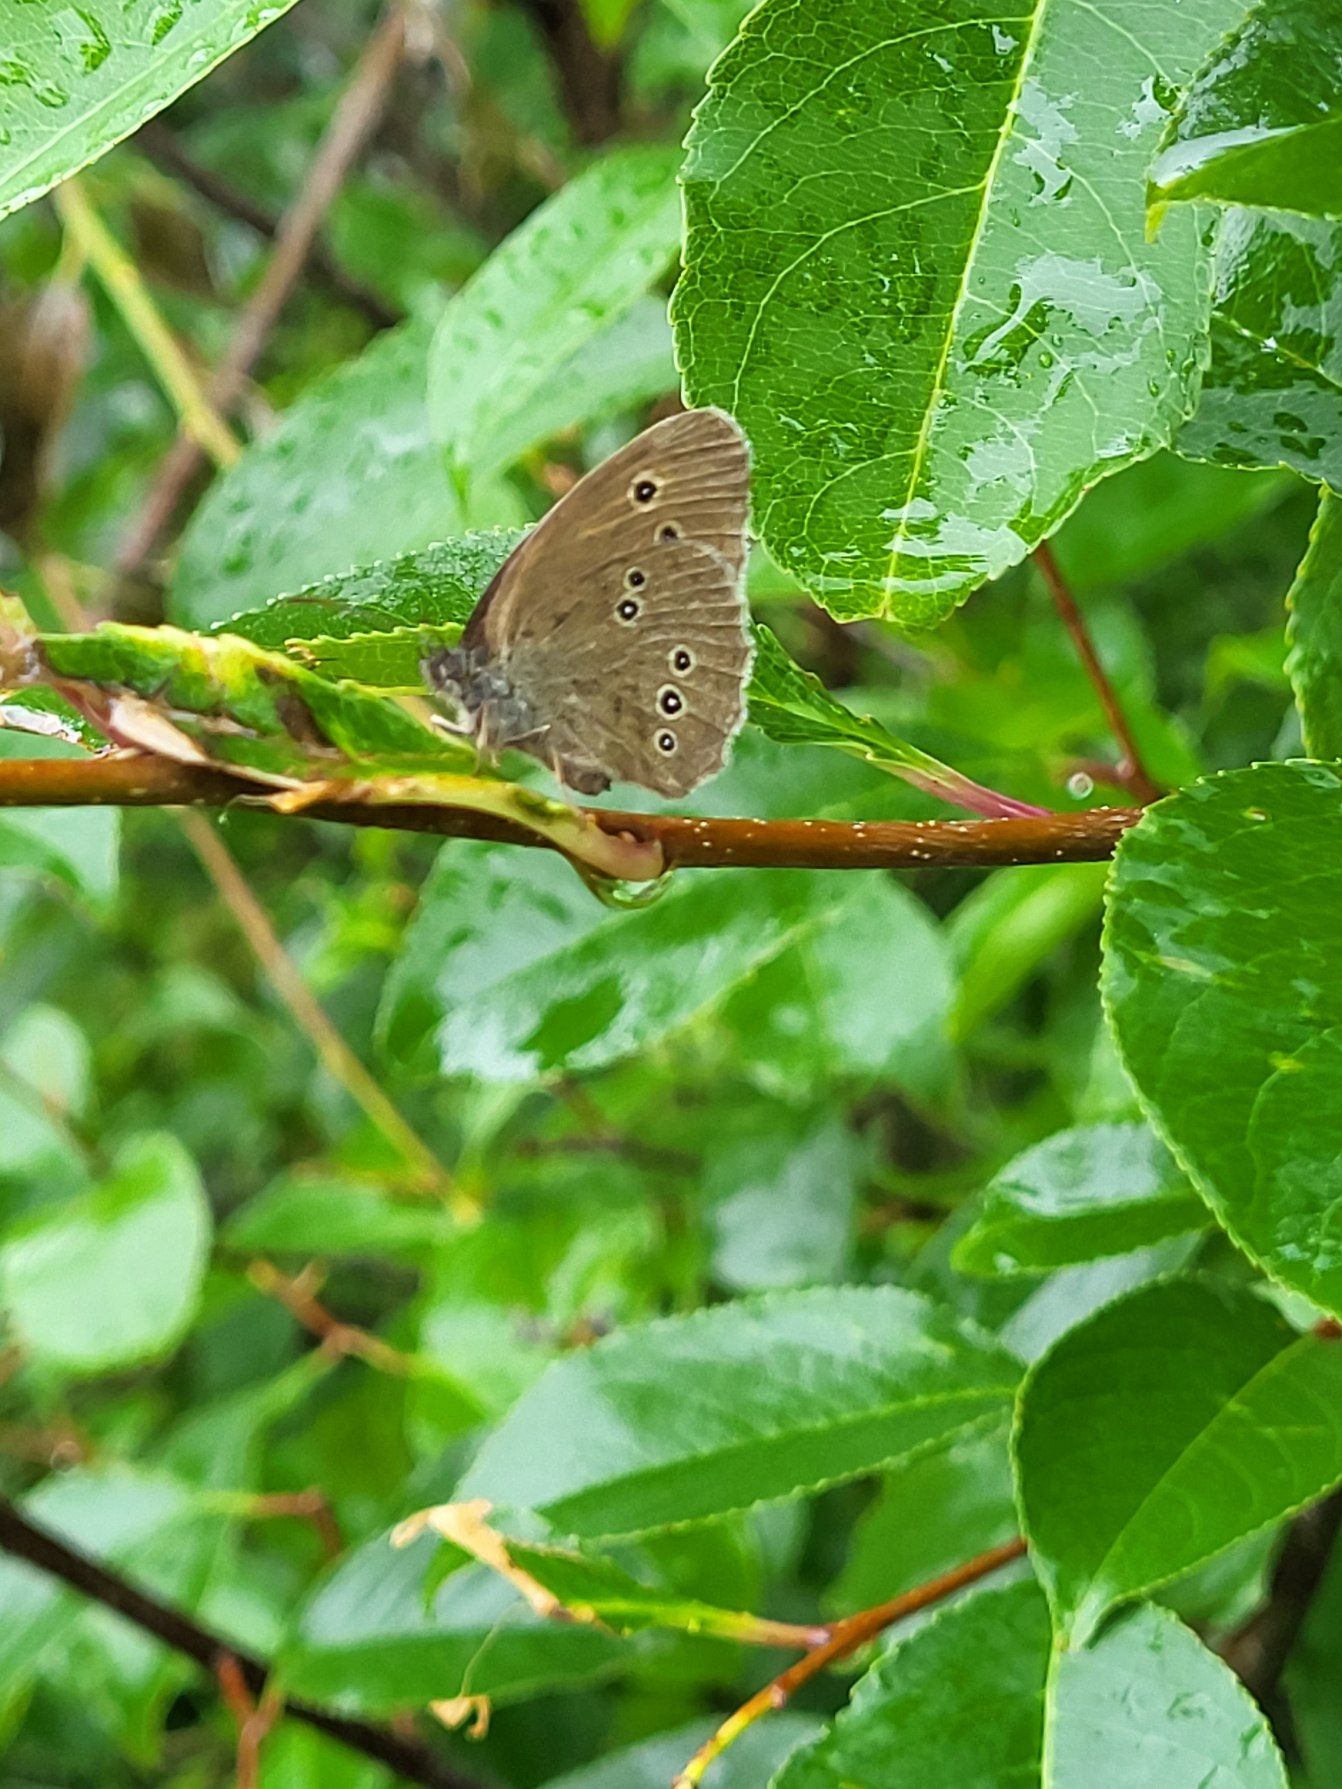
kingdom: Animalia
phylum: Arthropoda
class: Insecta
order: Lepidoptera
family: Nymphalidae
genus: Aphantopus
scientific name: Aphantopus hyperantus
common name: Engrandøje
